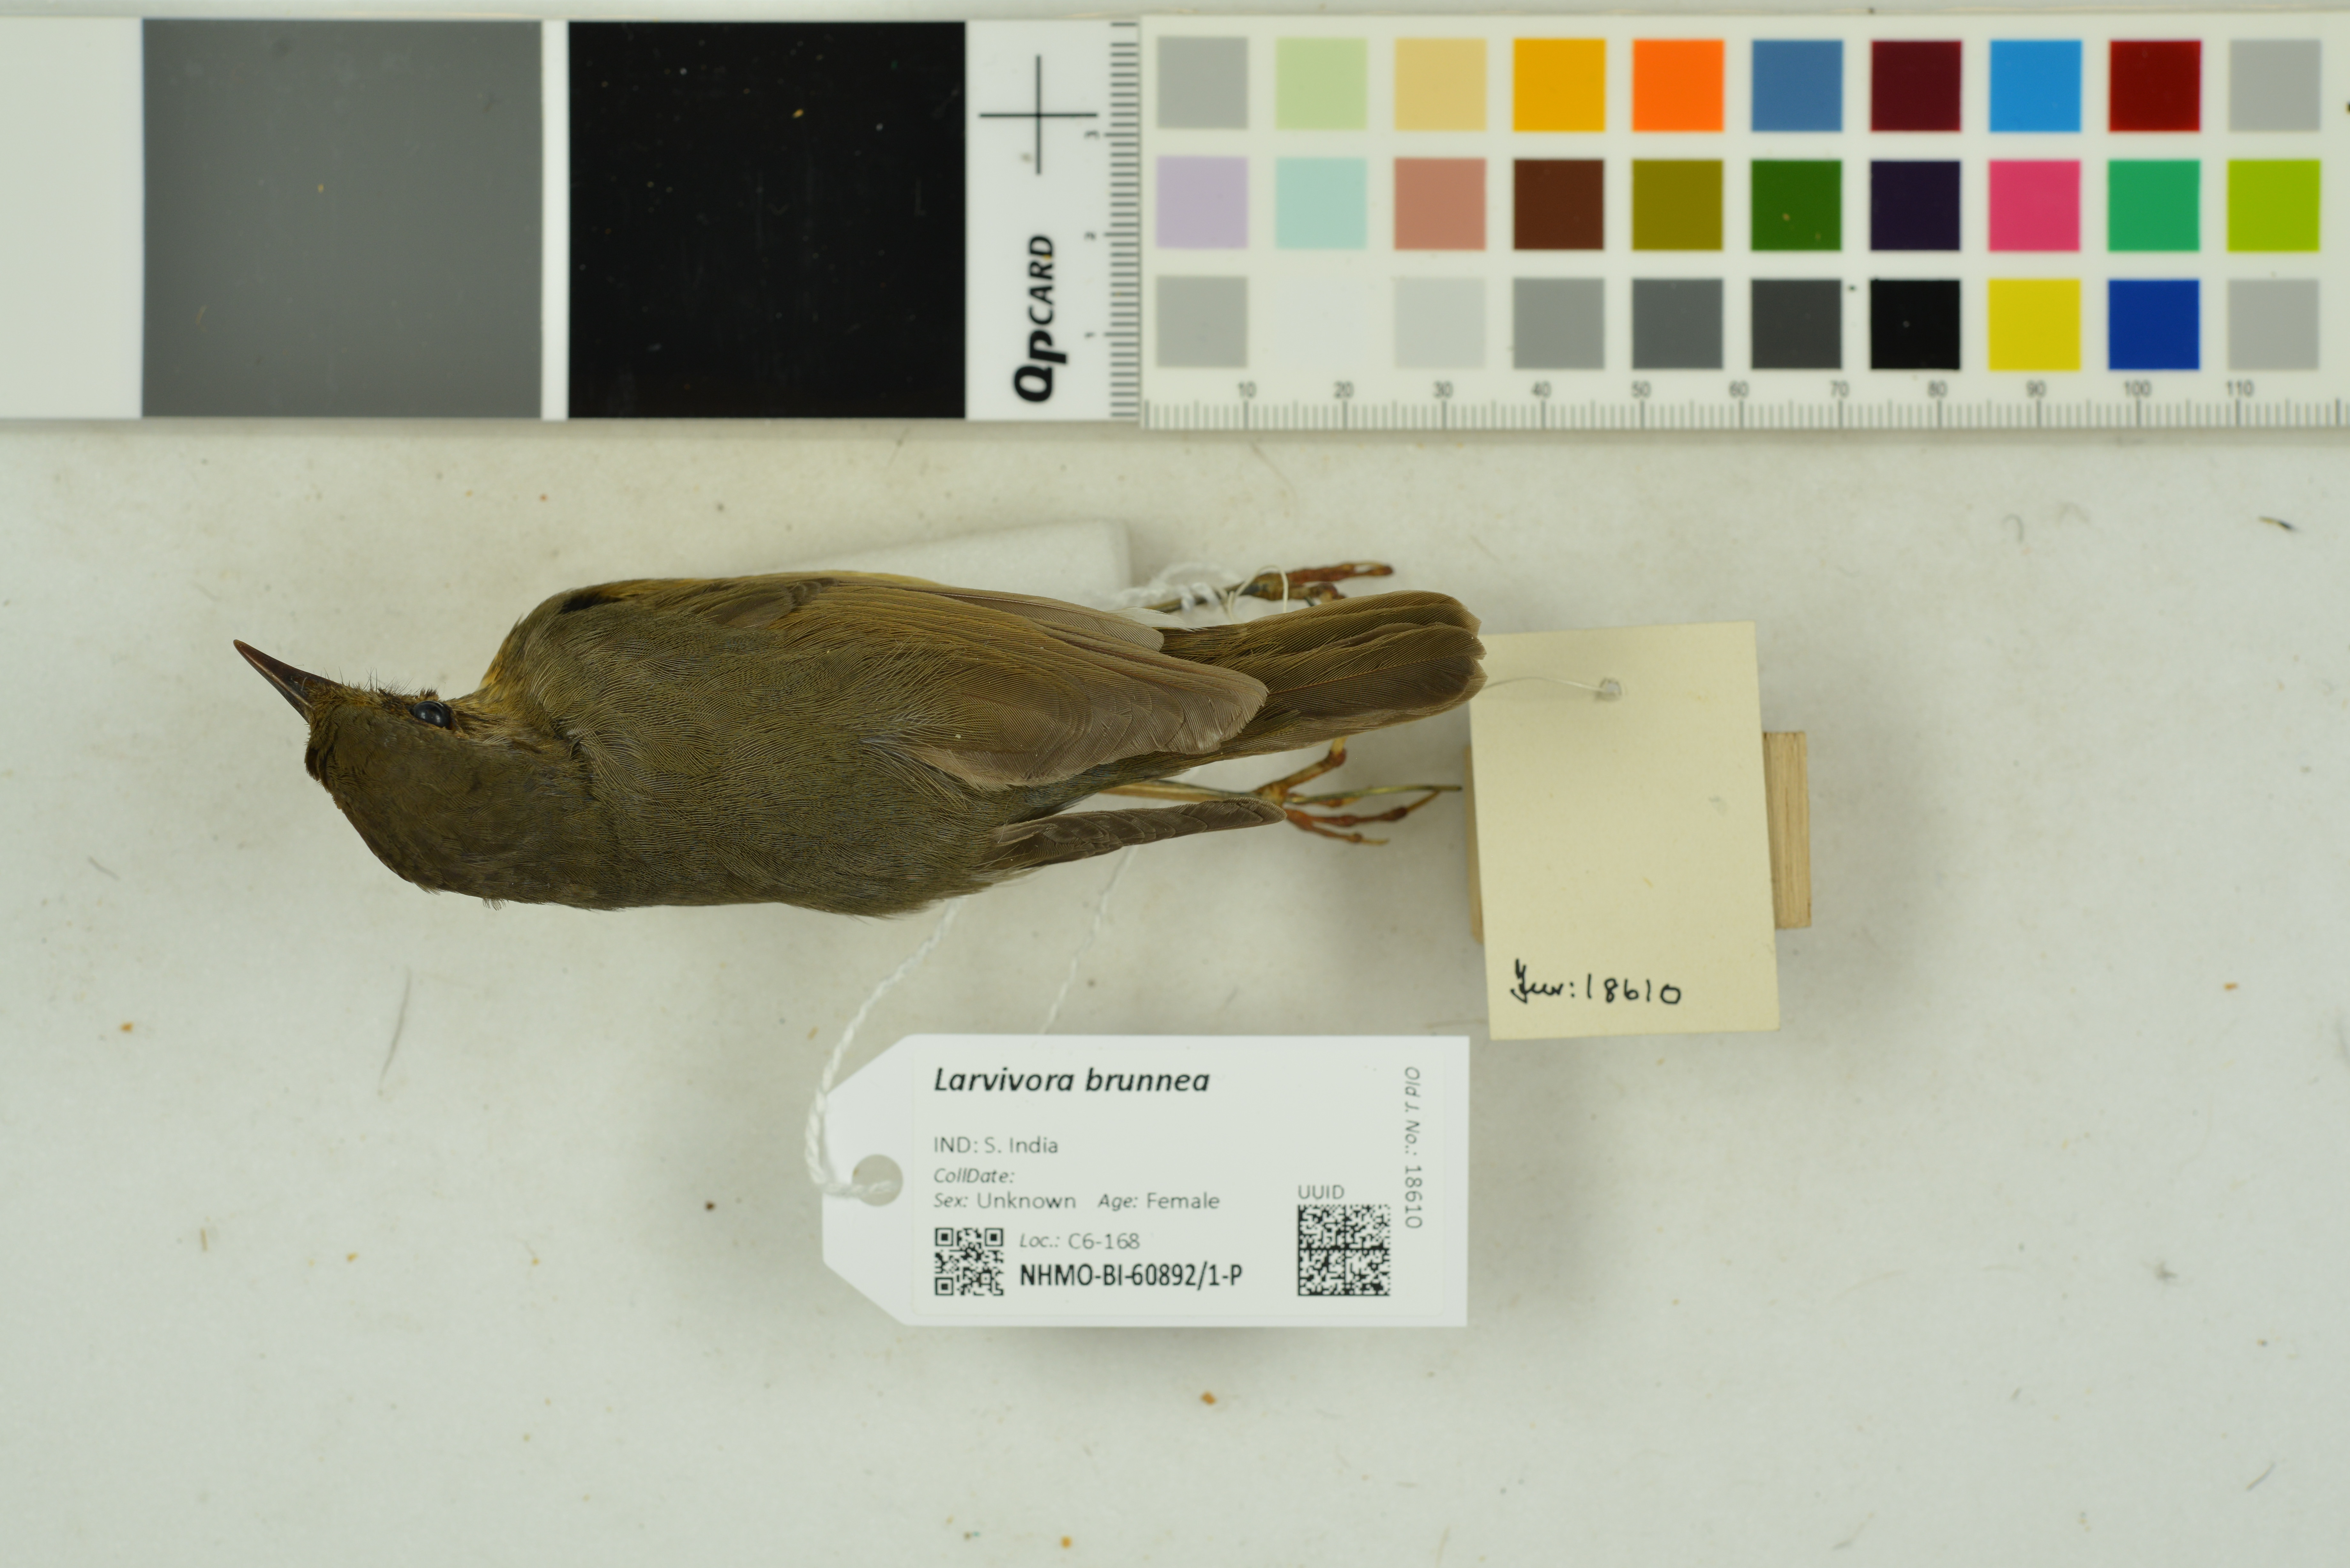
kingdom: Animalia
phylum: Chordata
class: Aves
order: Passeriformes
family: Muscicapidae
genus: Luscinia
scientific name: Luscinia brunnea
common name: Indian blue robin
